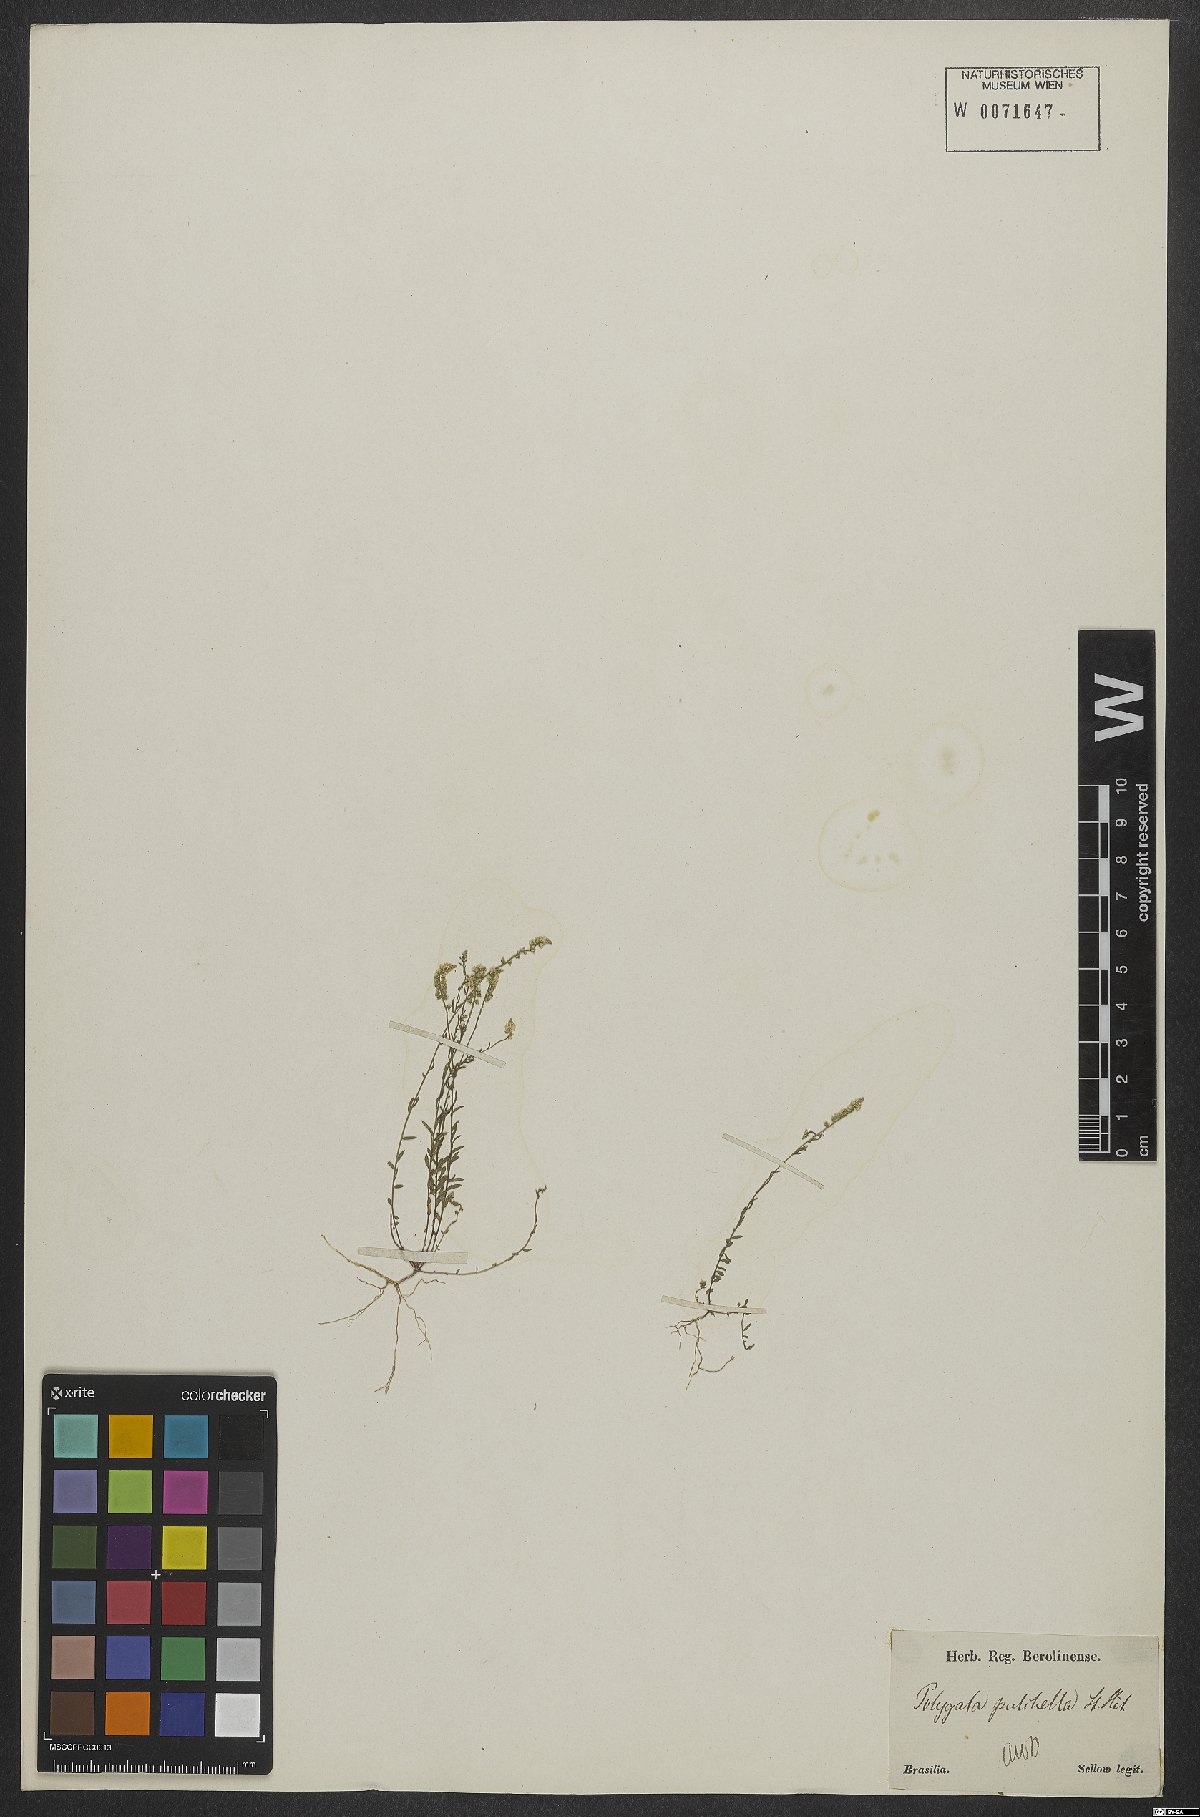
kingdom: Plantae
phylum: Tracheophyta
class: Magnoliopsida
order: Fabales
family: Polygalaceae
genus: Polygala
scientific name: Polygala pulchella
